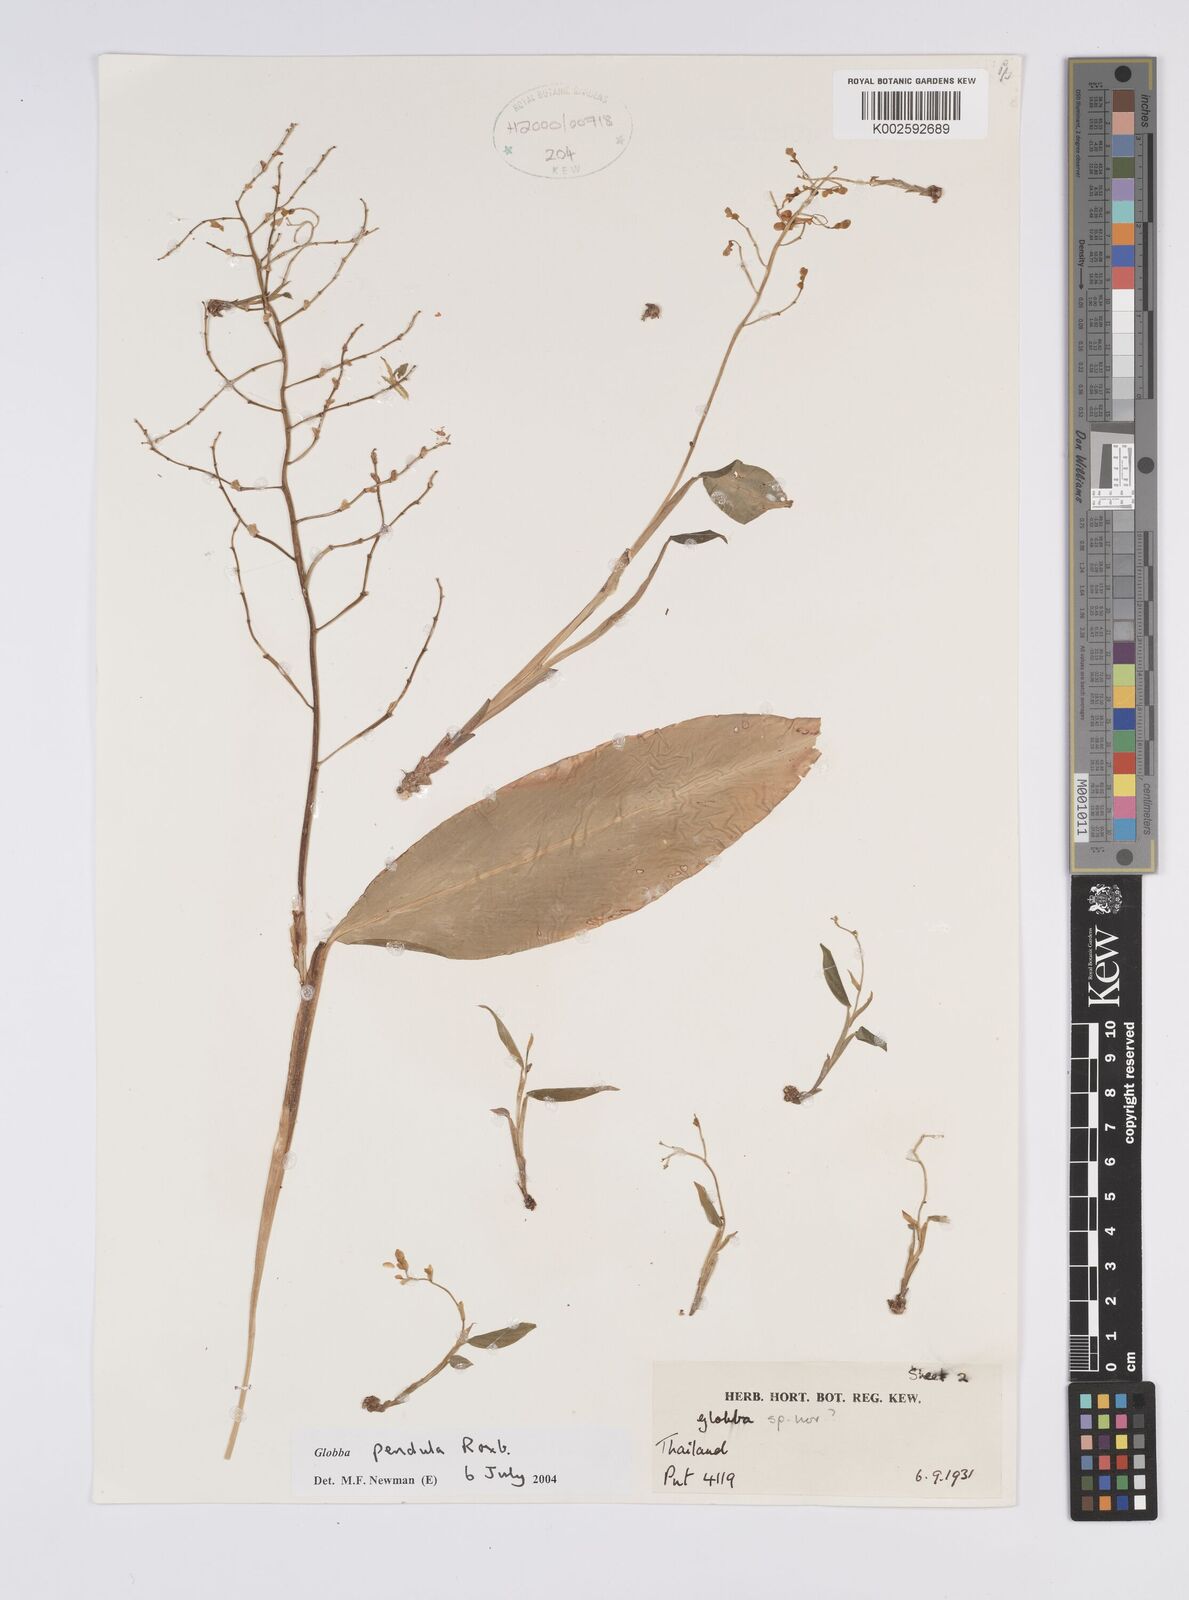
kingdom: Plantae
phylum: Tracheophyta
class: Liliopsida
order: Zingiberales
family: Zingiberaceae
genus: Globba
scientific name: Globba pendula
